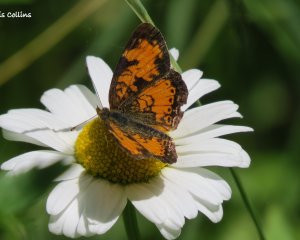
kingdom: Animalia
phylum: Arthropoda
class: Insecta
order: Lepidoptera
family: Nymphalidae
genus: Phyciodes
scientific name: Phyciodes tharos
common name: Northern Crescent
